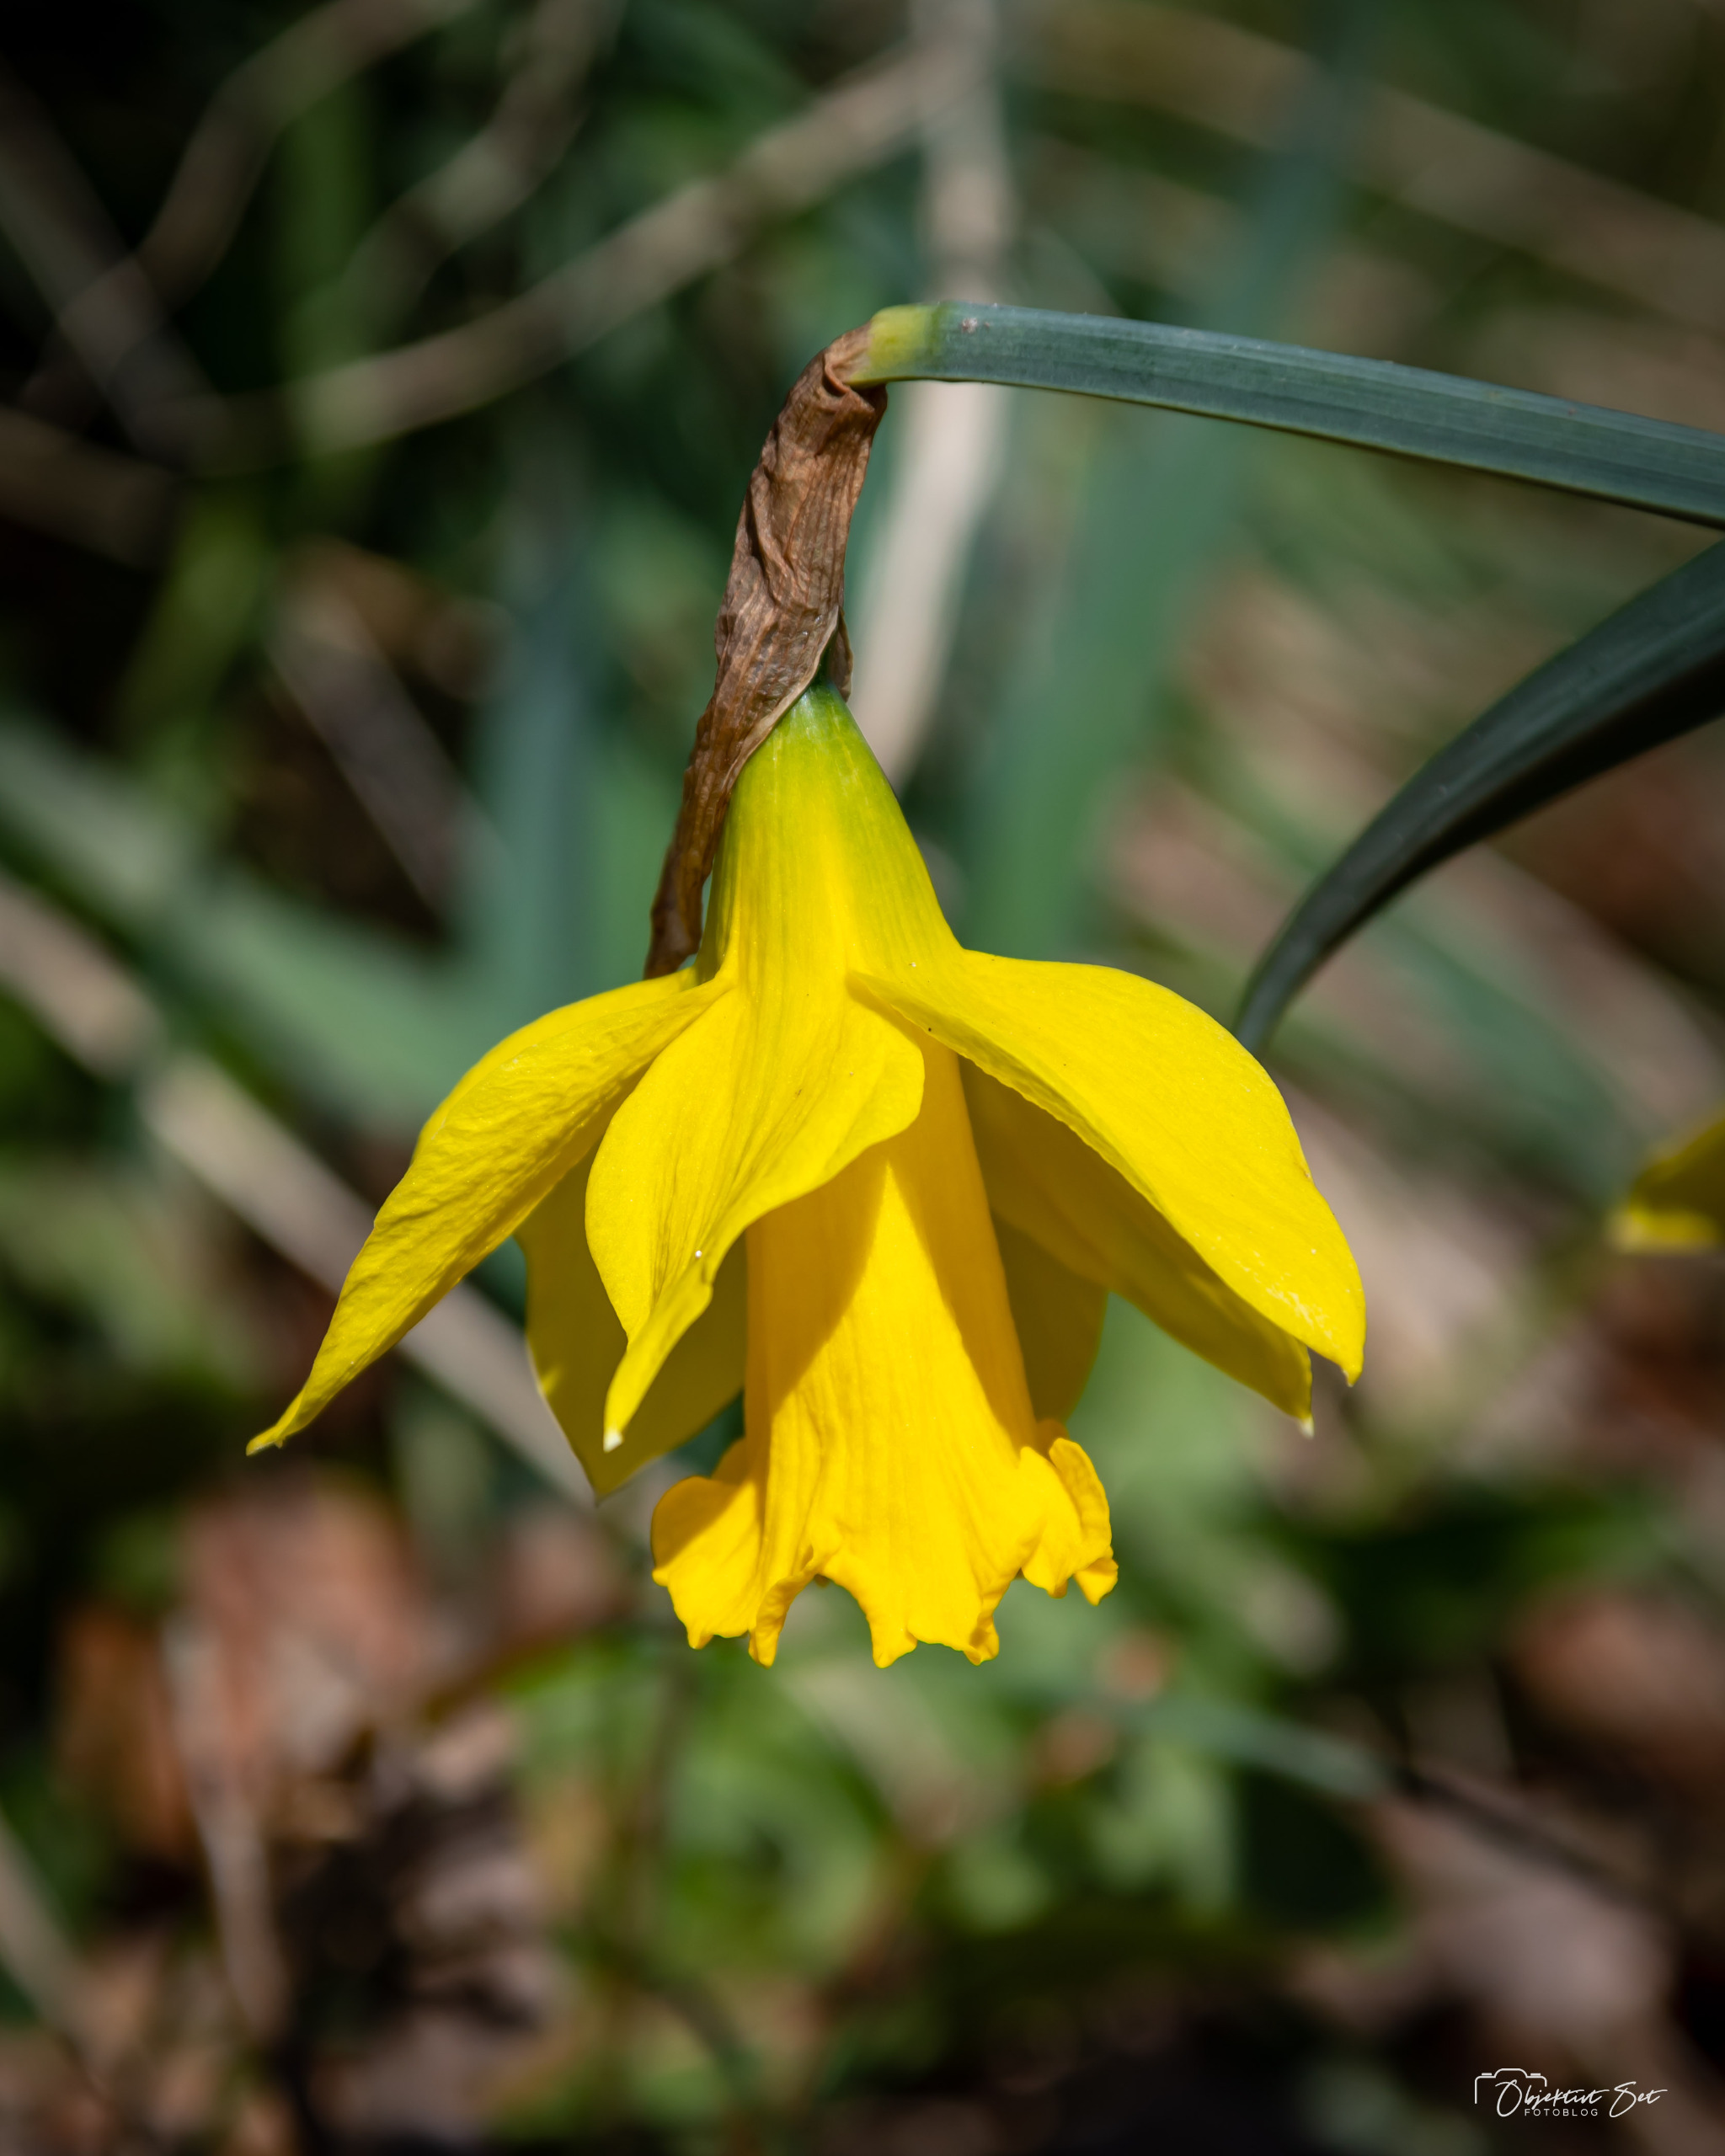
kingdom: Plantae
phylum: Tracheophyta
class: Liliopsida
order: Asparagales
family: Amaryllidaceae
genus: Narcissus
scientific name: Narcissus pseudonarcissus
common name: Påskelilje
